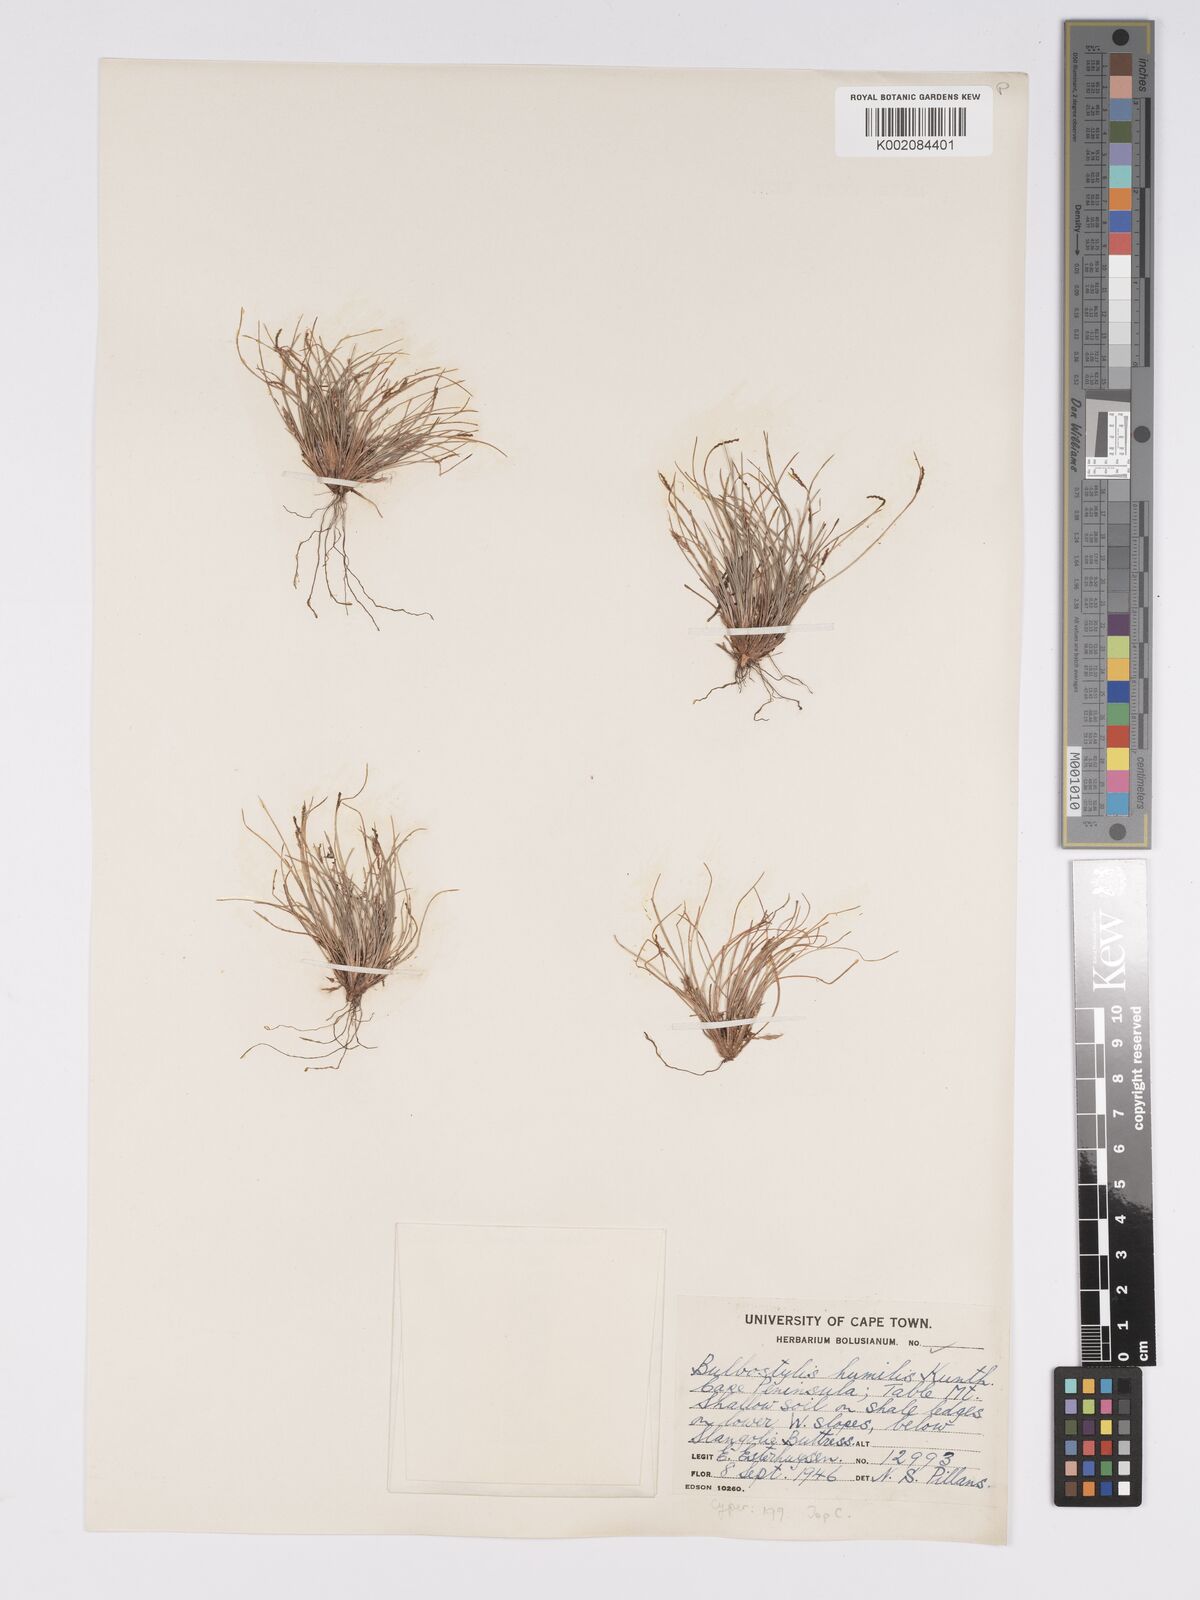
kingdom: Plantae
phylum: Tracheophyta
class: Liliopsida
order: Poales
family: Cyperaceae
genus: Bulbostylis
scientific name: Bulbostylis humilis
